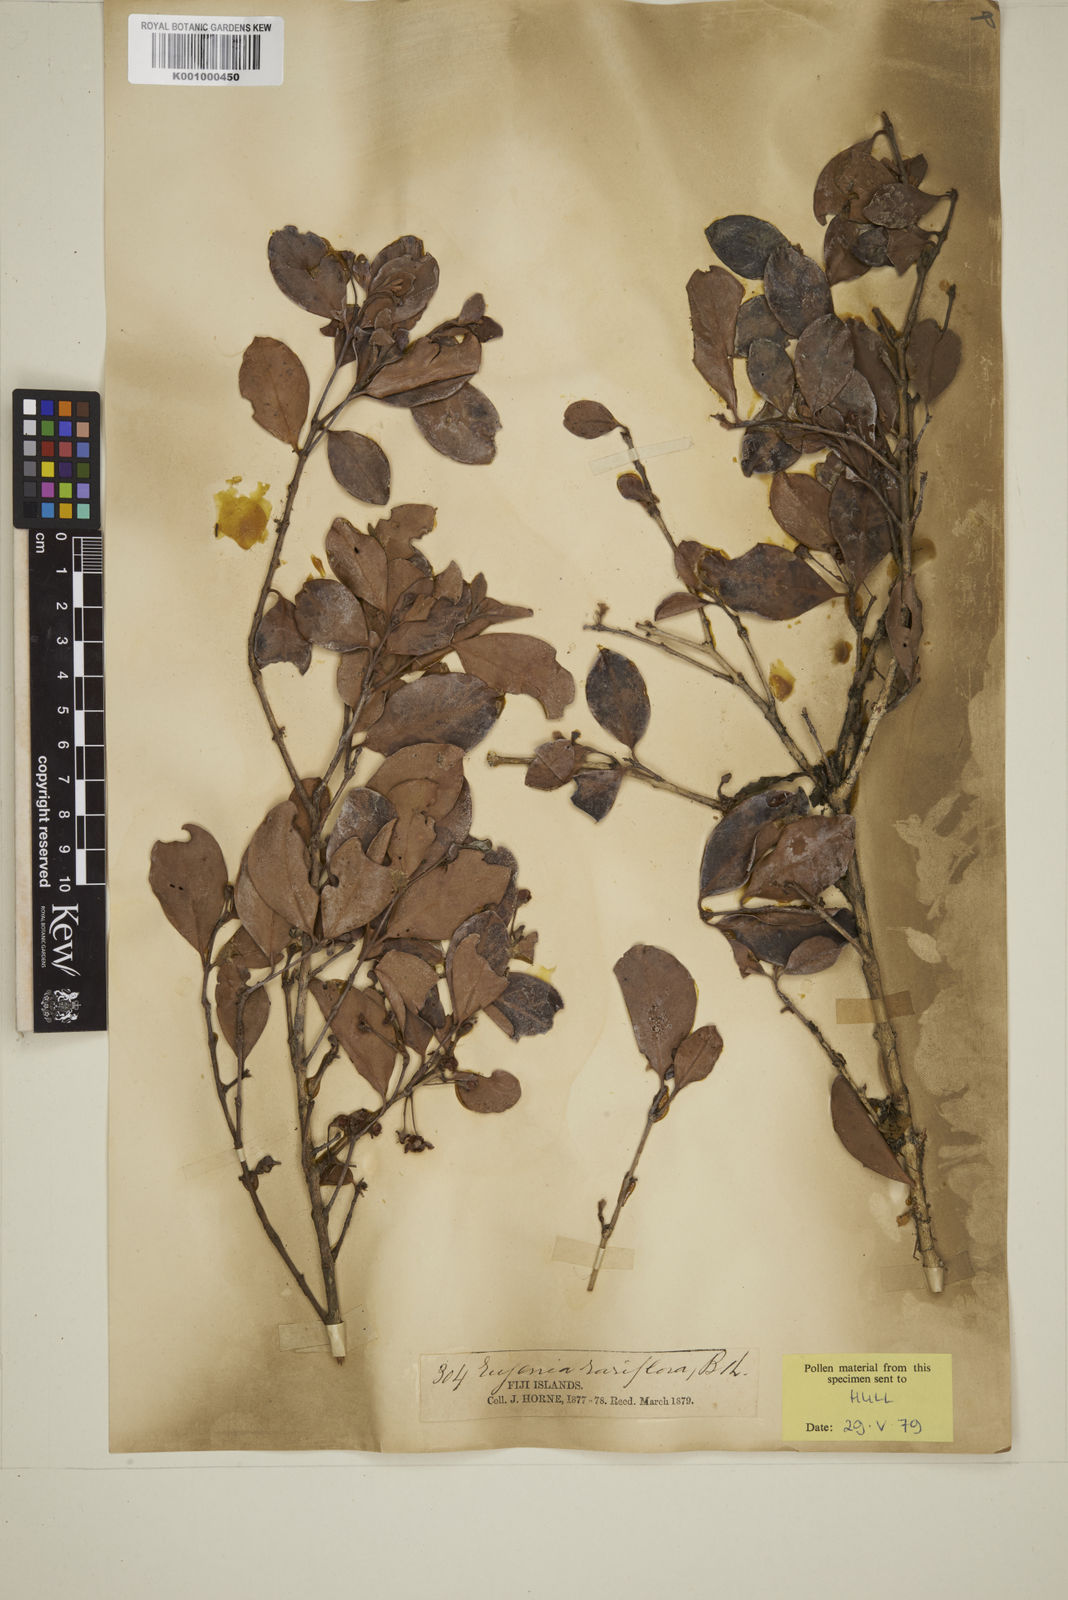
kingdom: Plantae
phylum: Tracheophyta
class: Magnoliopsida
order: Myrtales
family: Myrtaceae
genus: Eugenia
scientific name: Eugenia reinwardtiana
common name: Cedar bay-cherry
